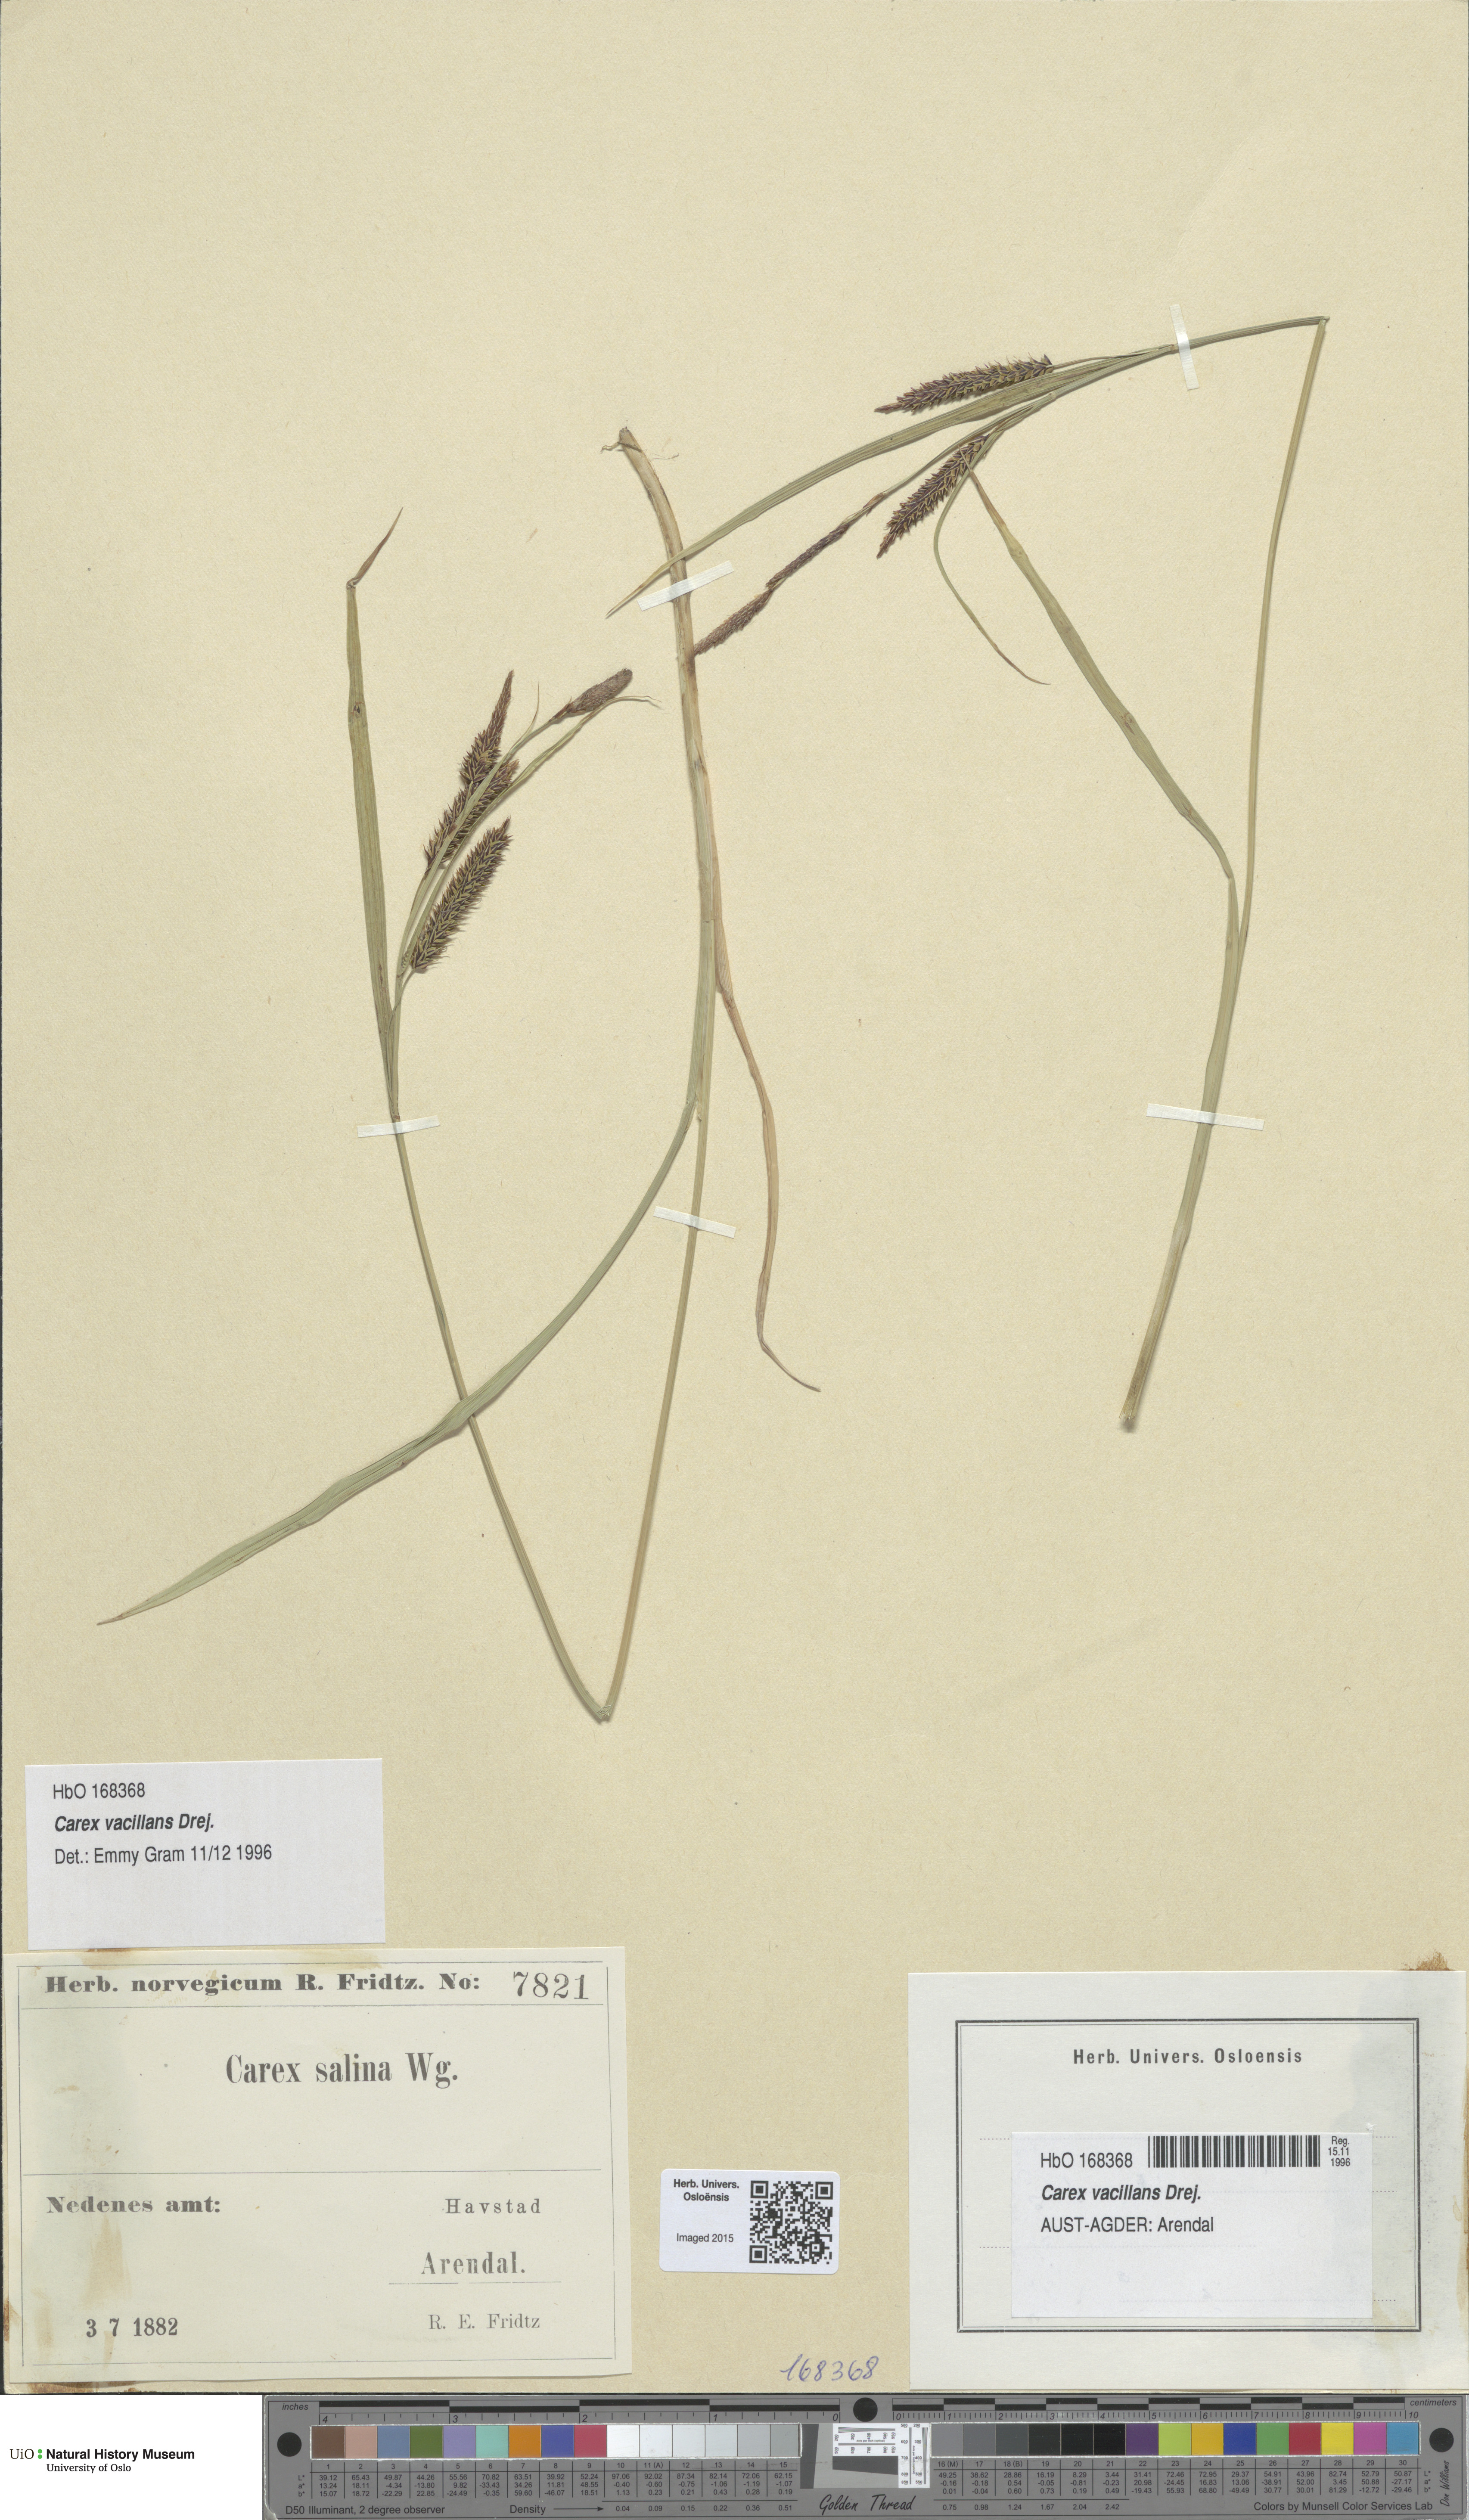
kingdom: Plantae
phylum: Tracheophyta
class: Liliopsida
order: Poales
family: Cyperaceae
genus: Carex
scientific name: Carex vacillans
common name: Sedge
